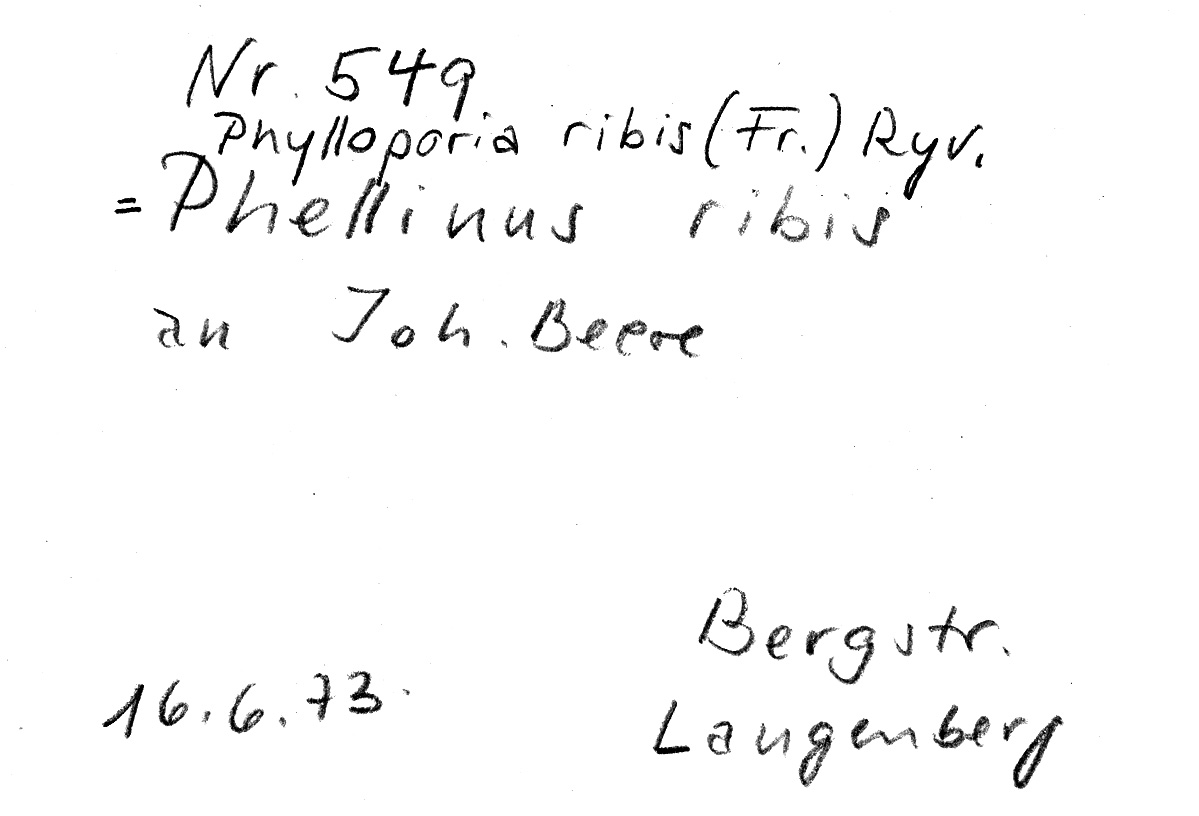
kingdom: Fungi
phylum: Basidiomycota
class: Agaricomycetes
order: Hymenochaetales
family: Hymenochaetaceae
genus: Phylloporia
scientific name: Phylloporia ribis
